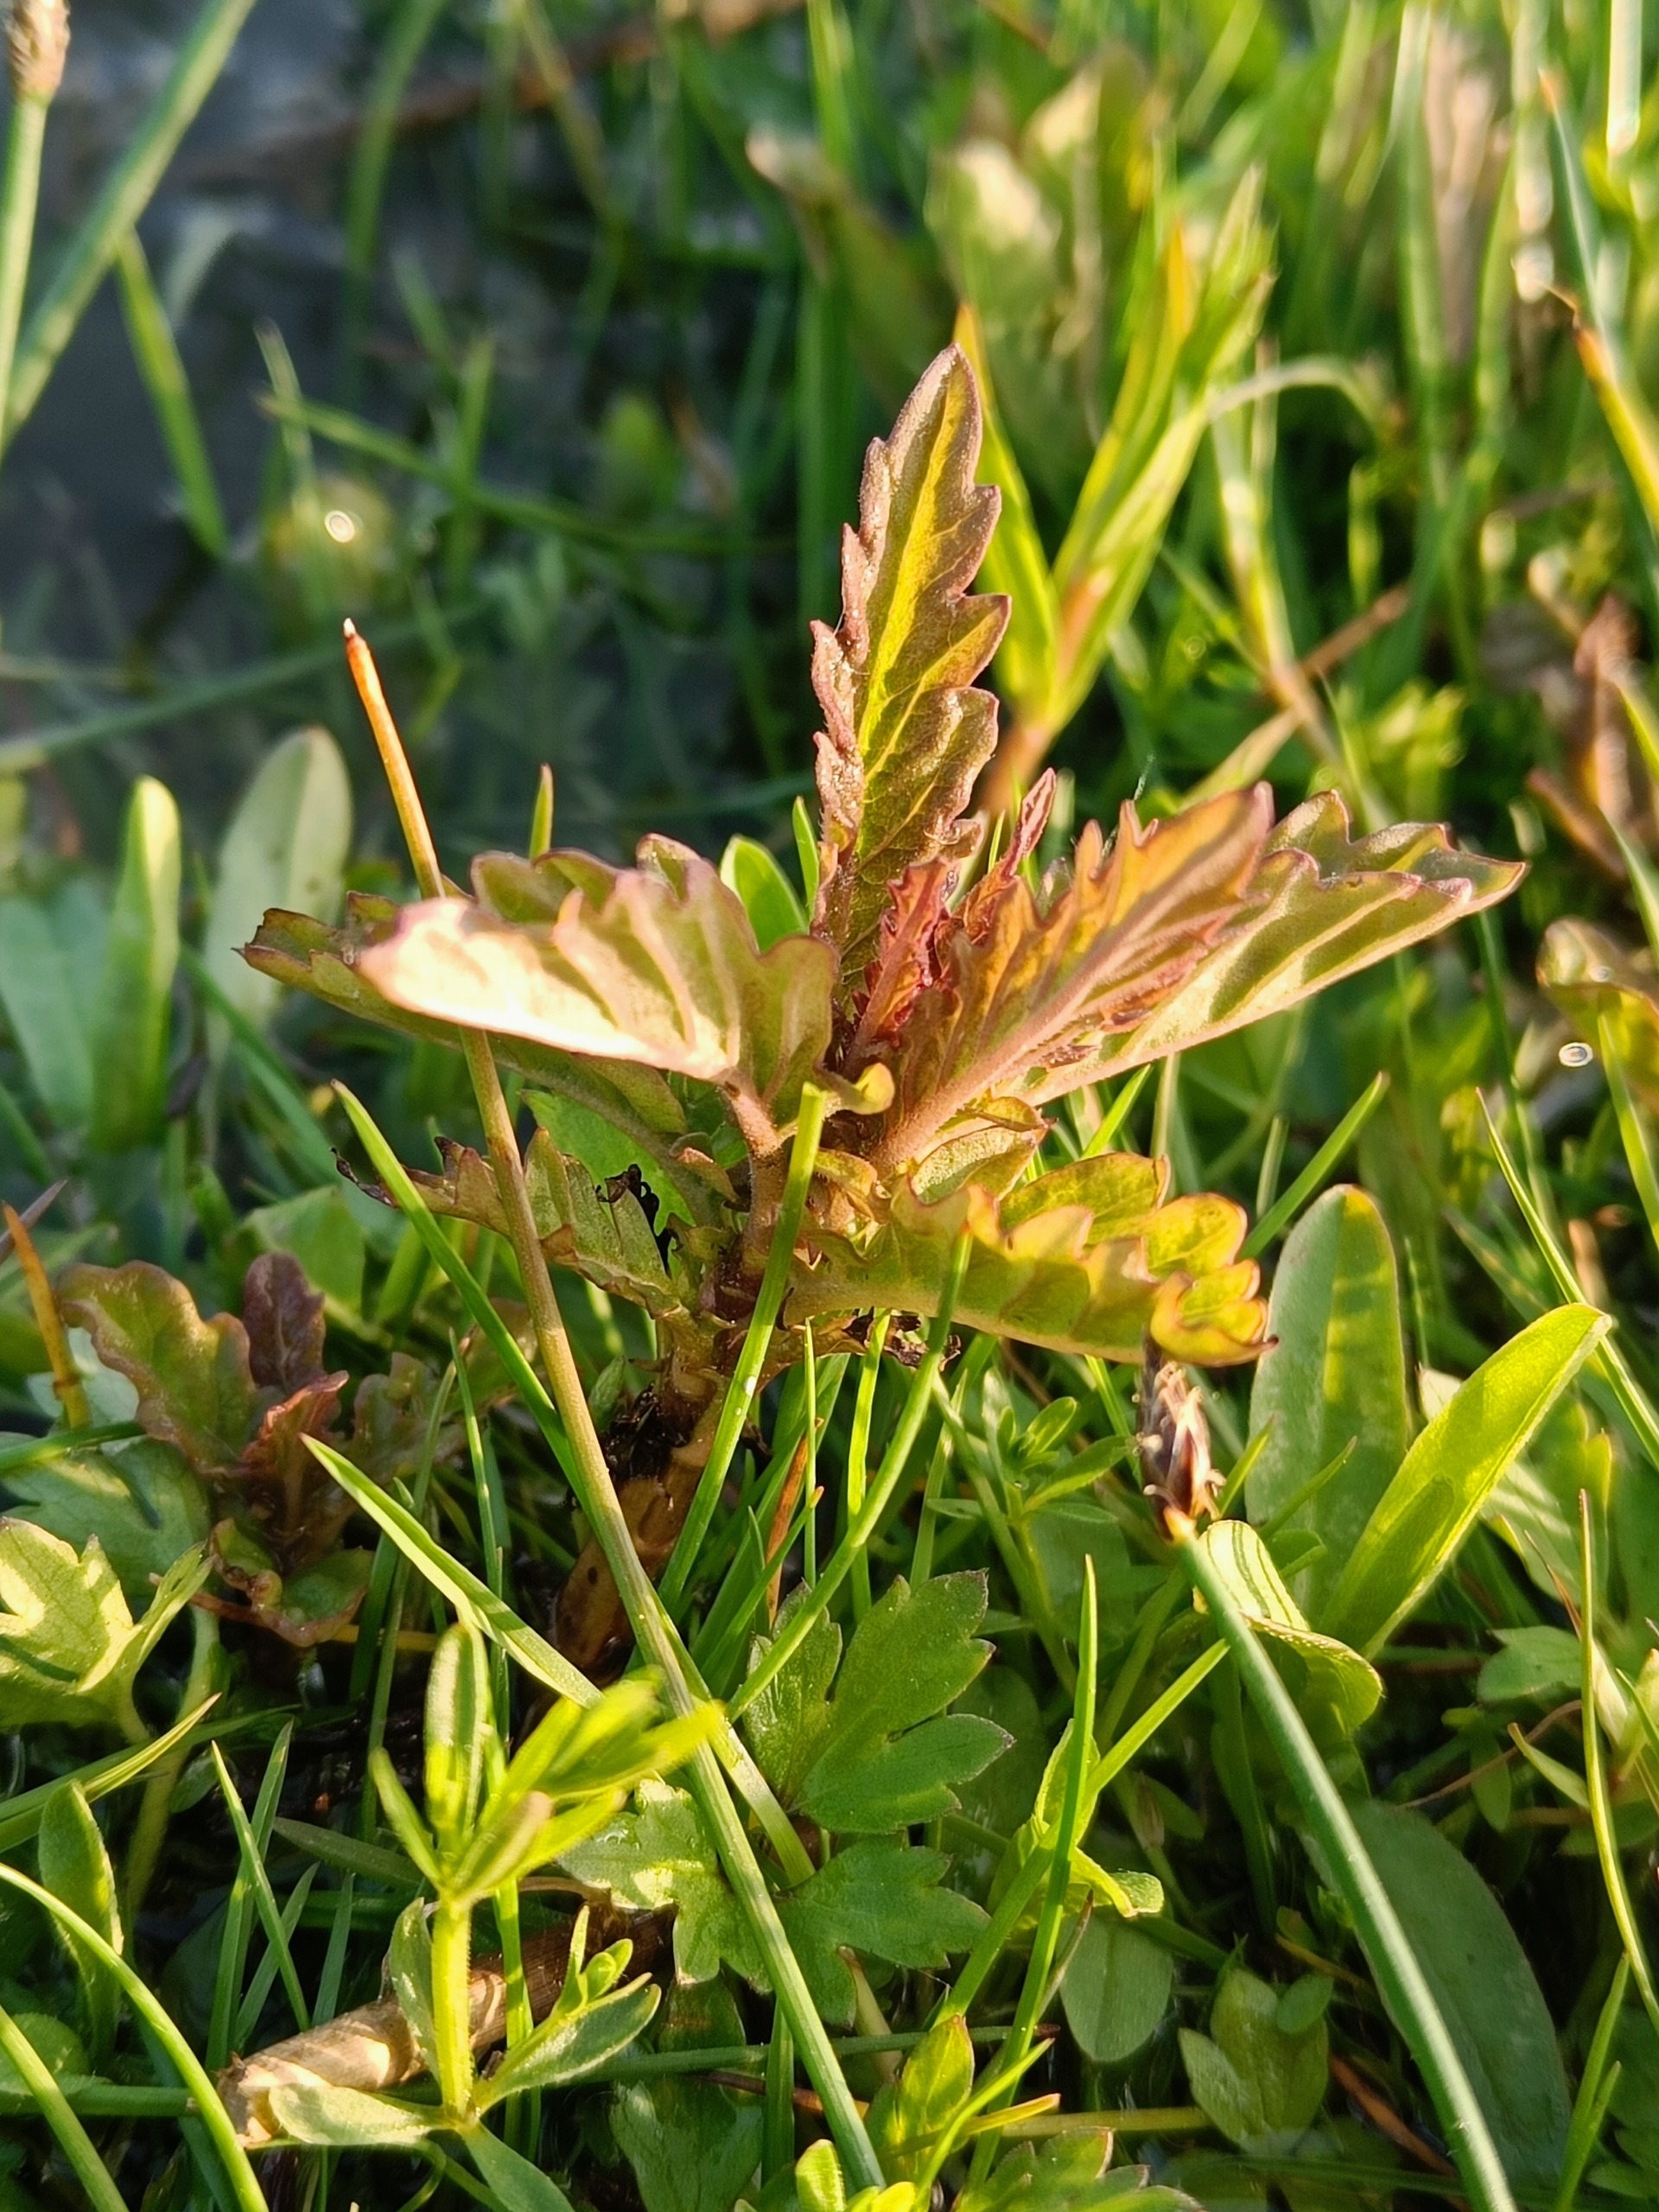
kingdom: Plantae
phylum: Tracheophyta
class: Magnoliopsida
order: Lamiales
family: Lamiaceae
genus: Lycopus
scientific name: Lycopus europaeus
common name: Sværtevæld
